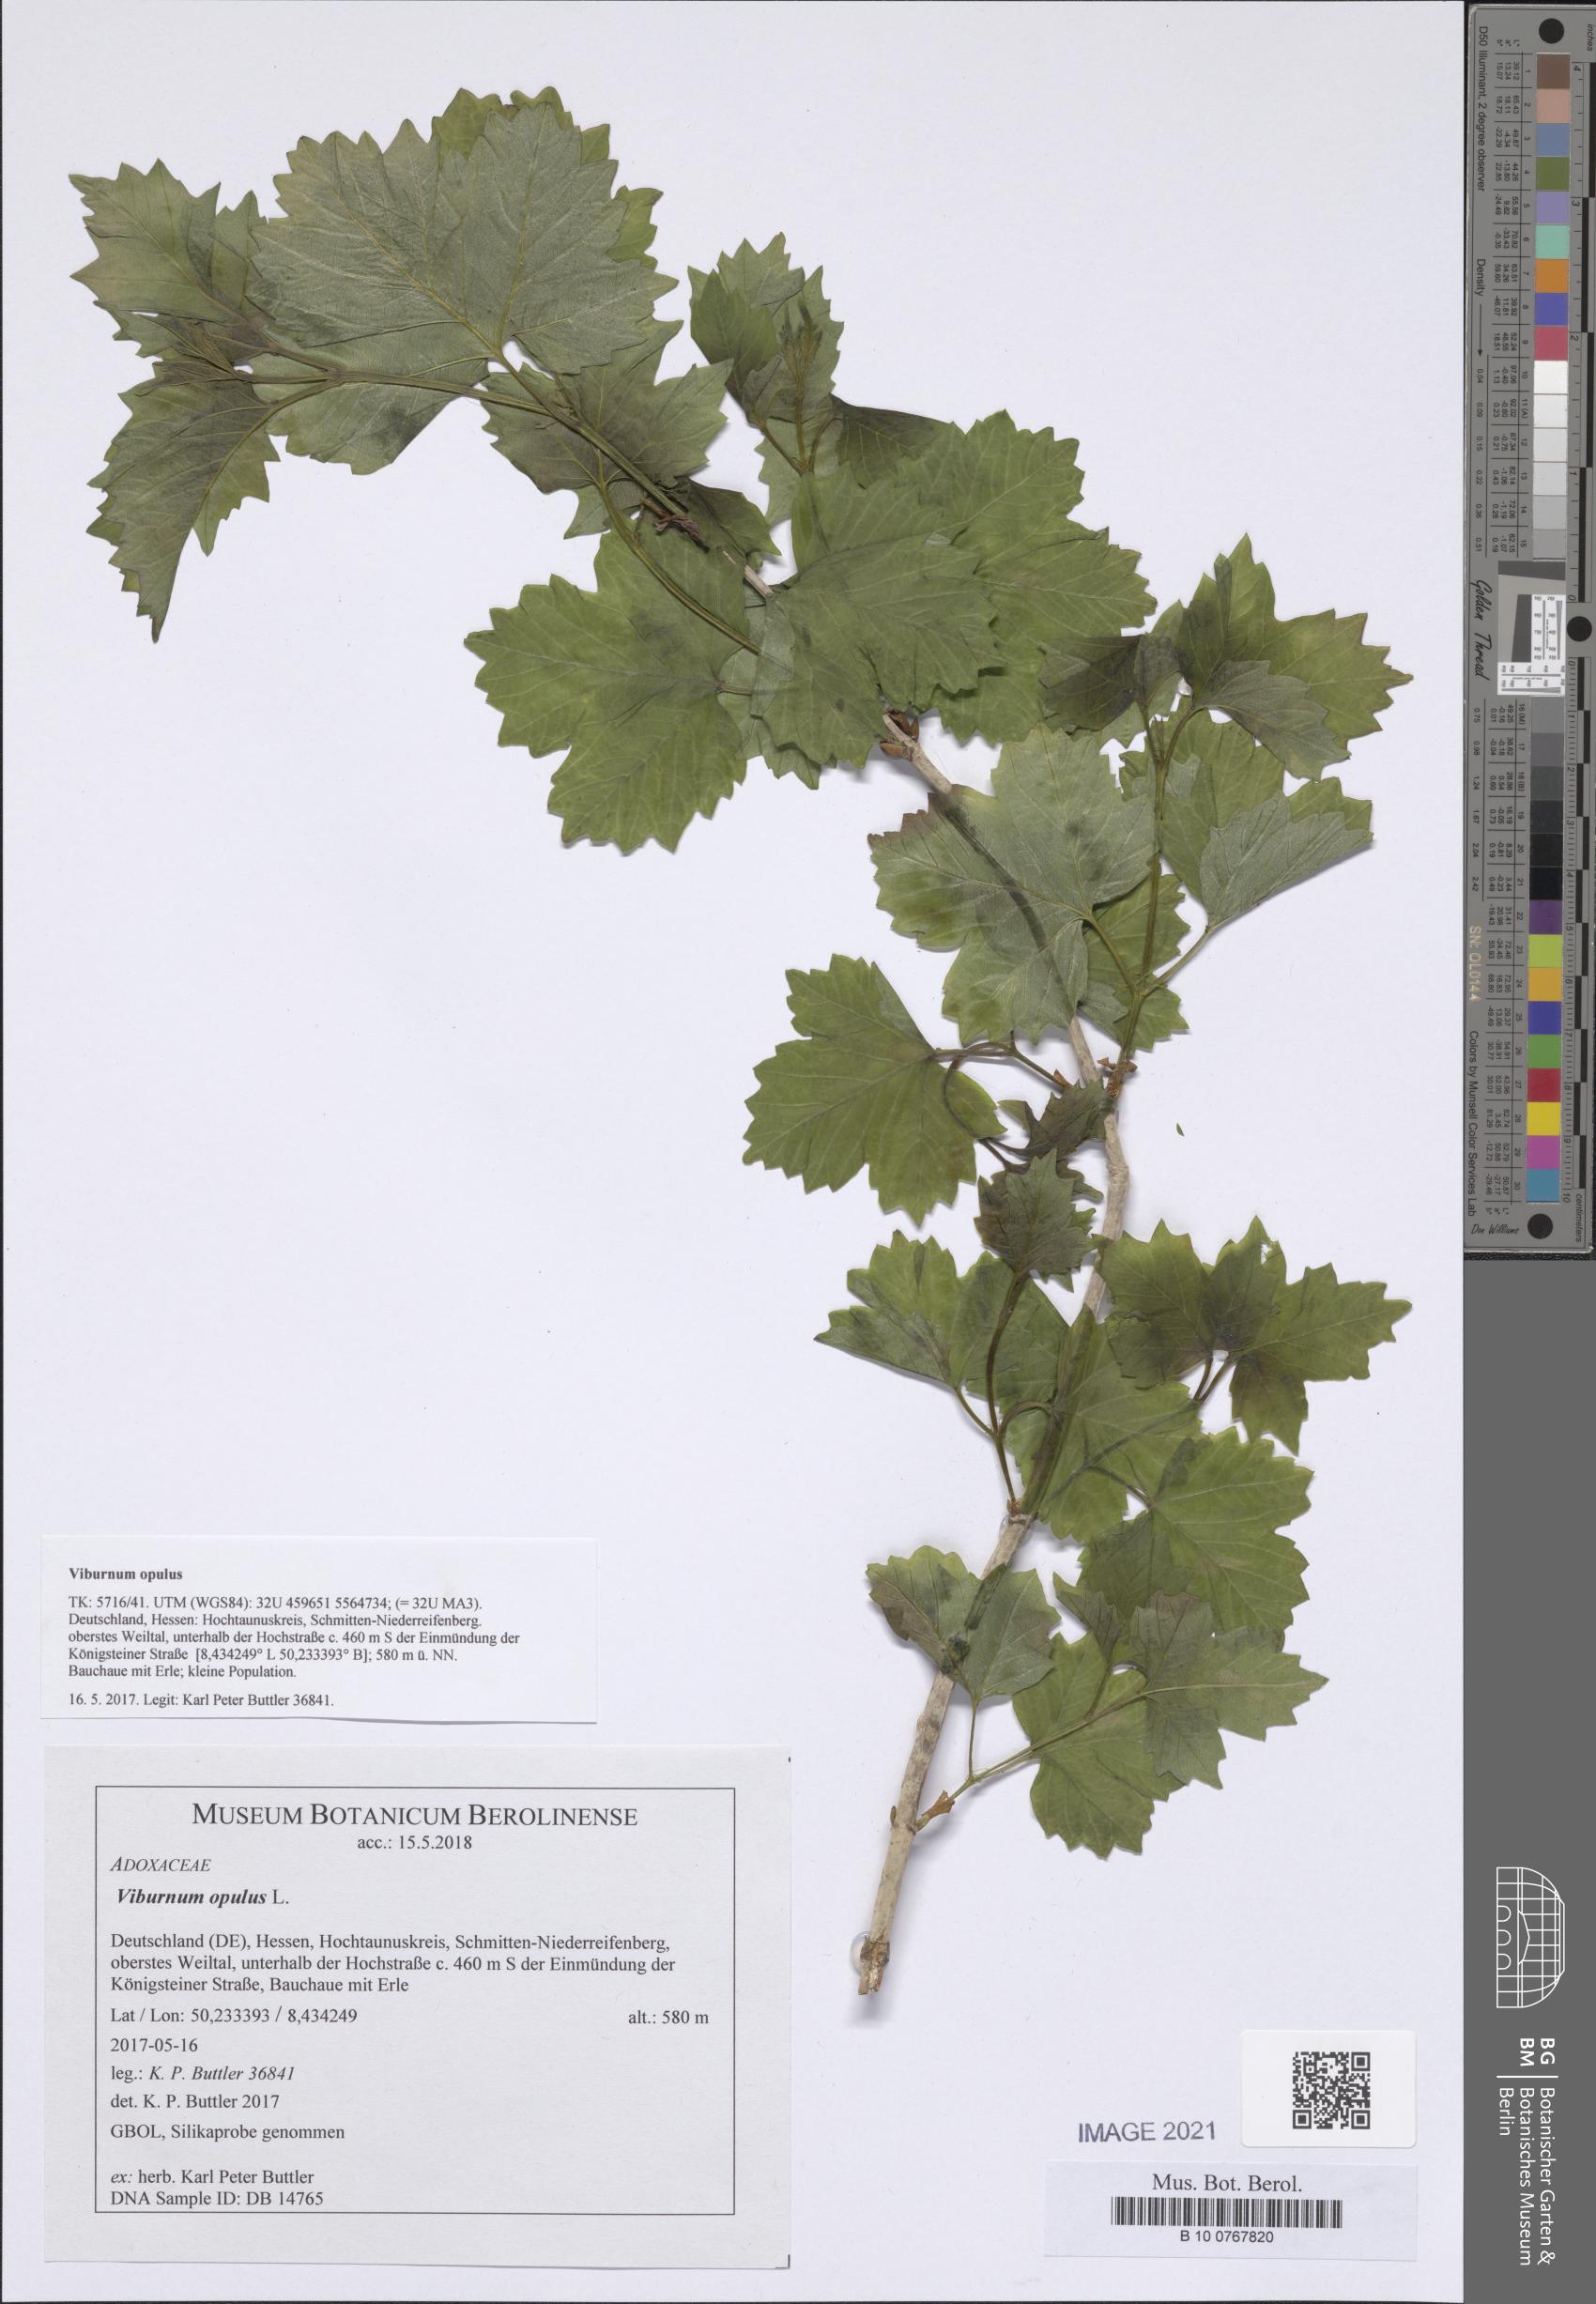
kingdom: Plantae
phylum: Tracheophyta
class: Magnoliopsida
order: Dipsacales
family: Viburnaceae
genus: Viburnum
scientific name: Viburnum opulus
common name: Guelder-rose
